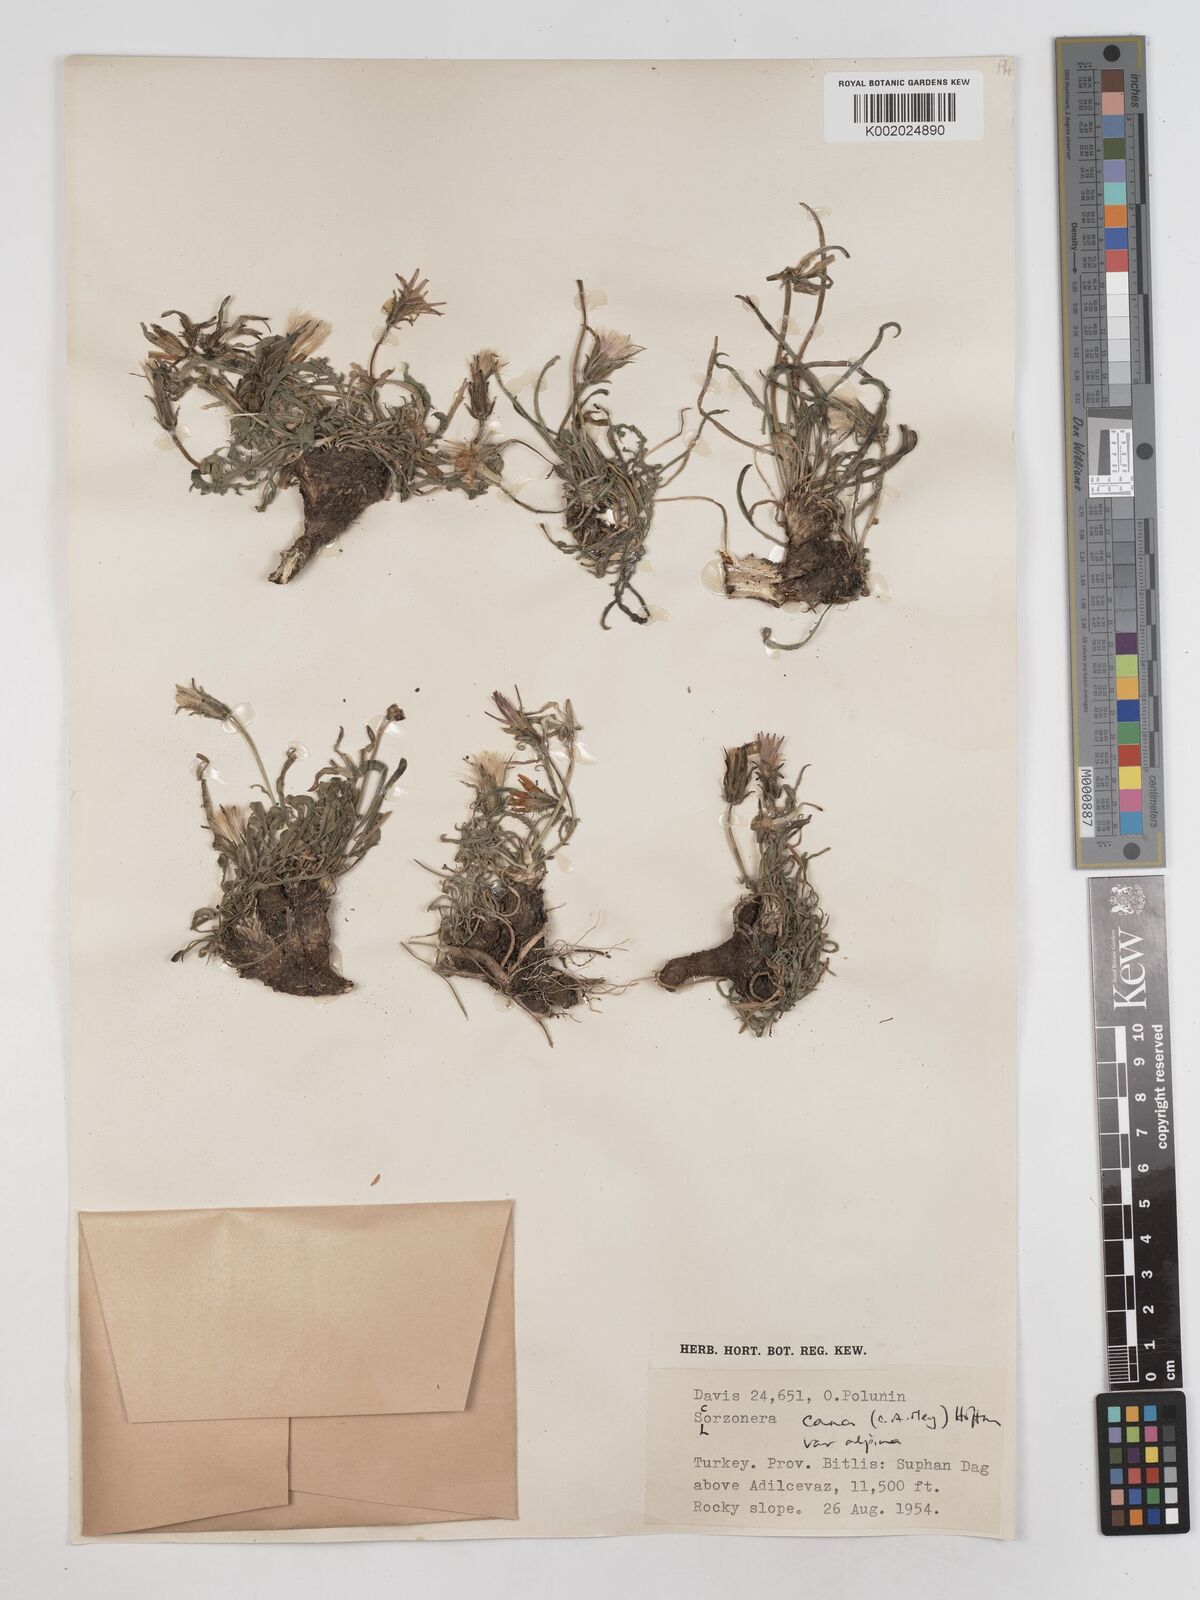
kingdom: Plantae
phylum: Tracheophyta
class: Magnoliopsida
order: Asterales
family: Asteraceae
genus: Scorzonera
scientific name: Scorzonera cana
